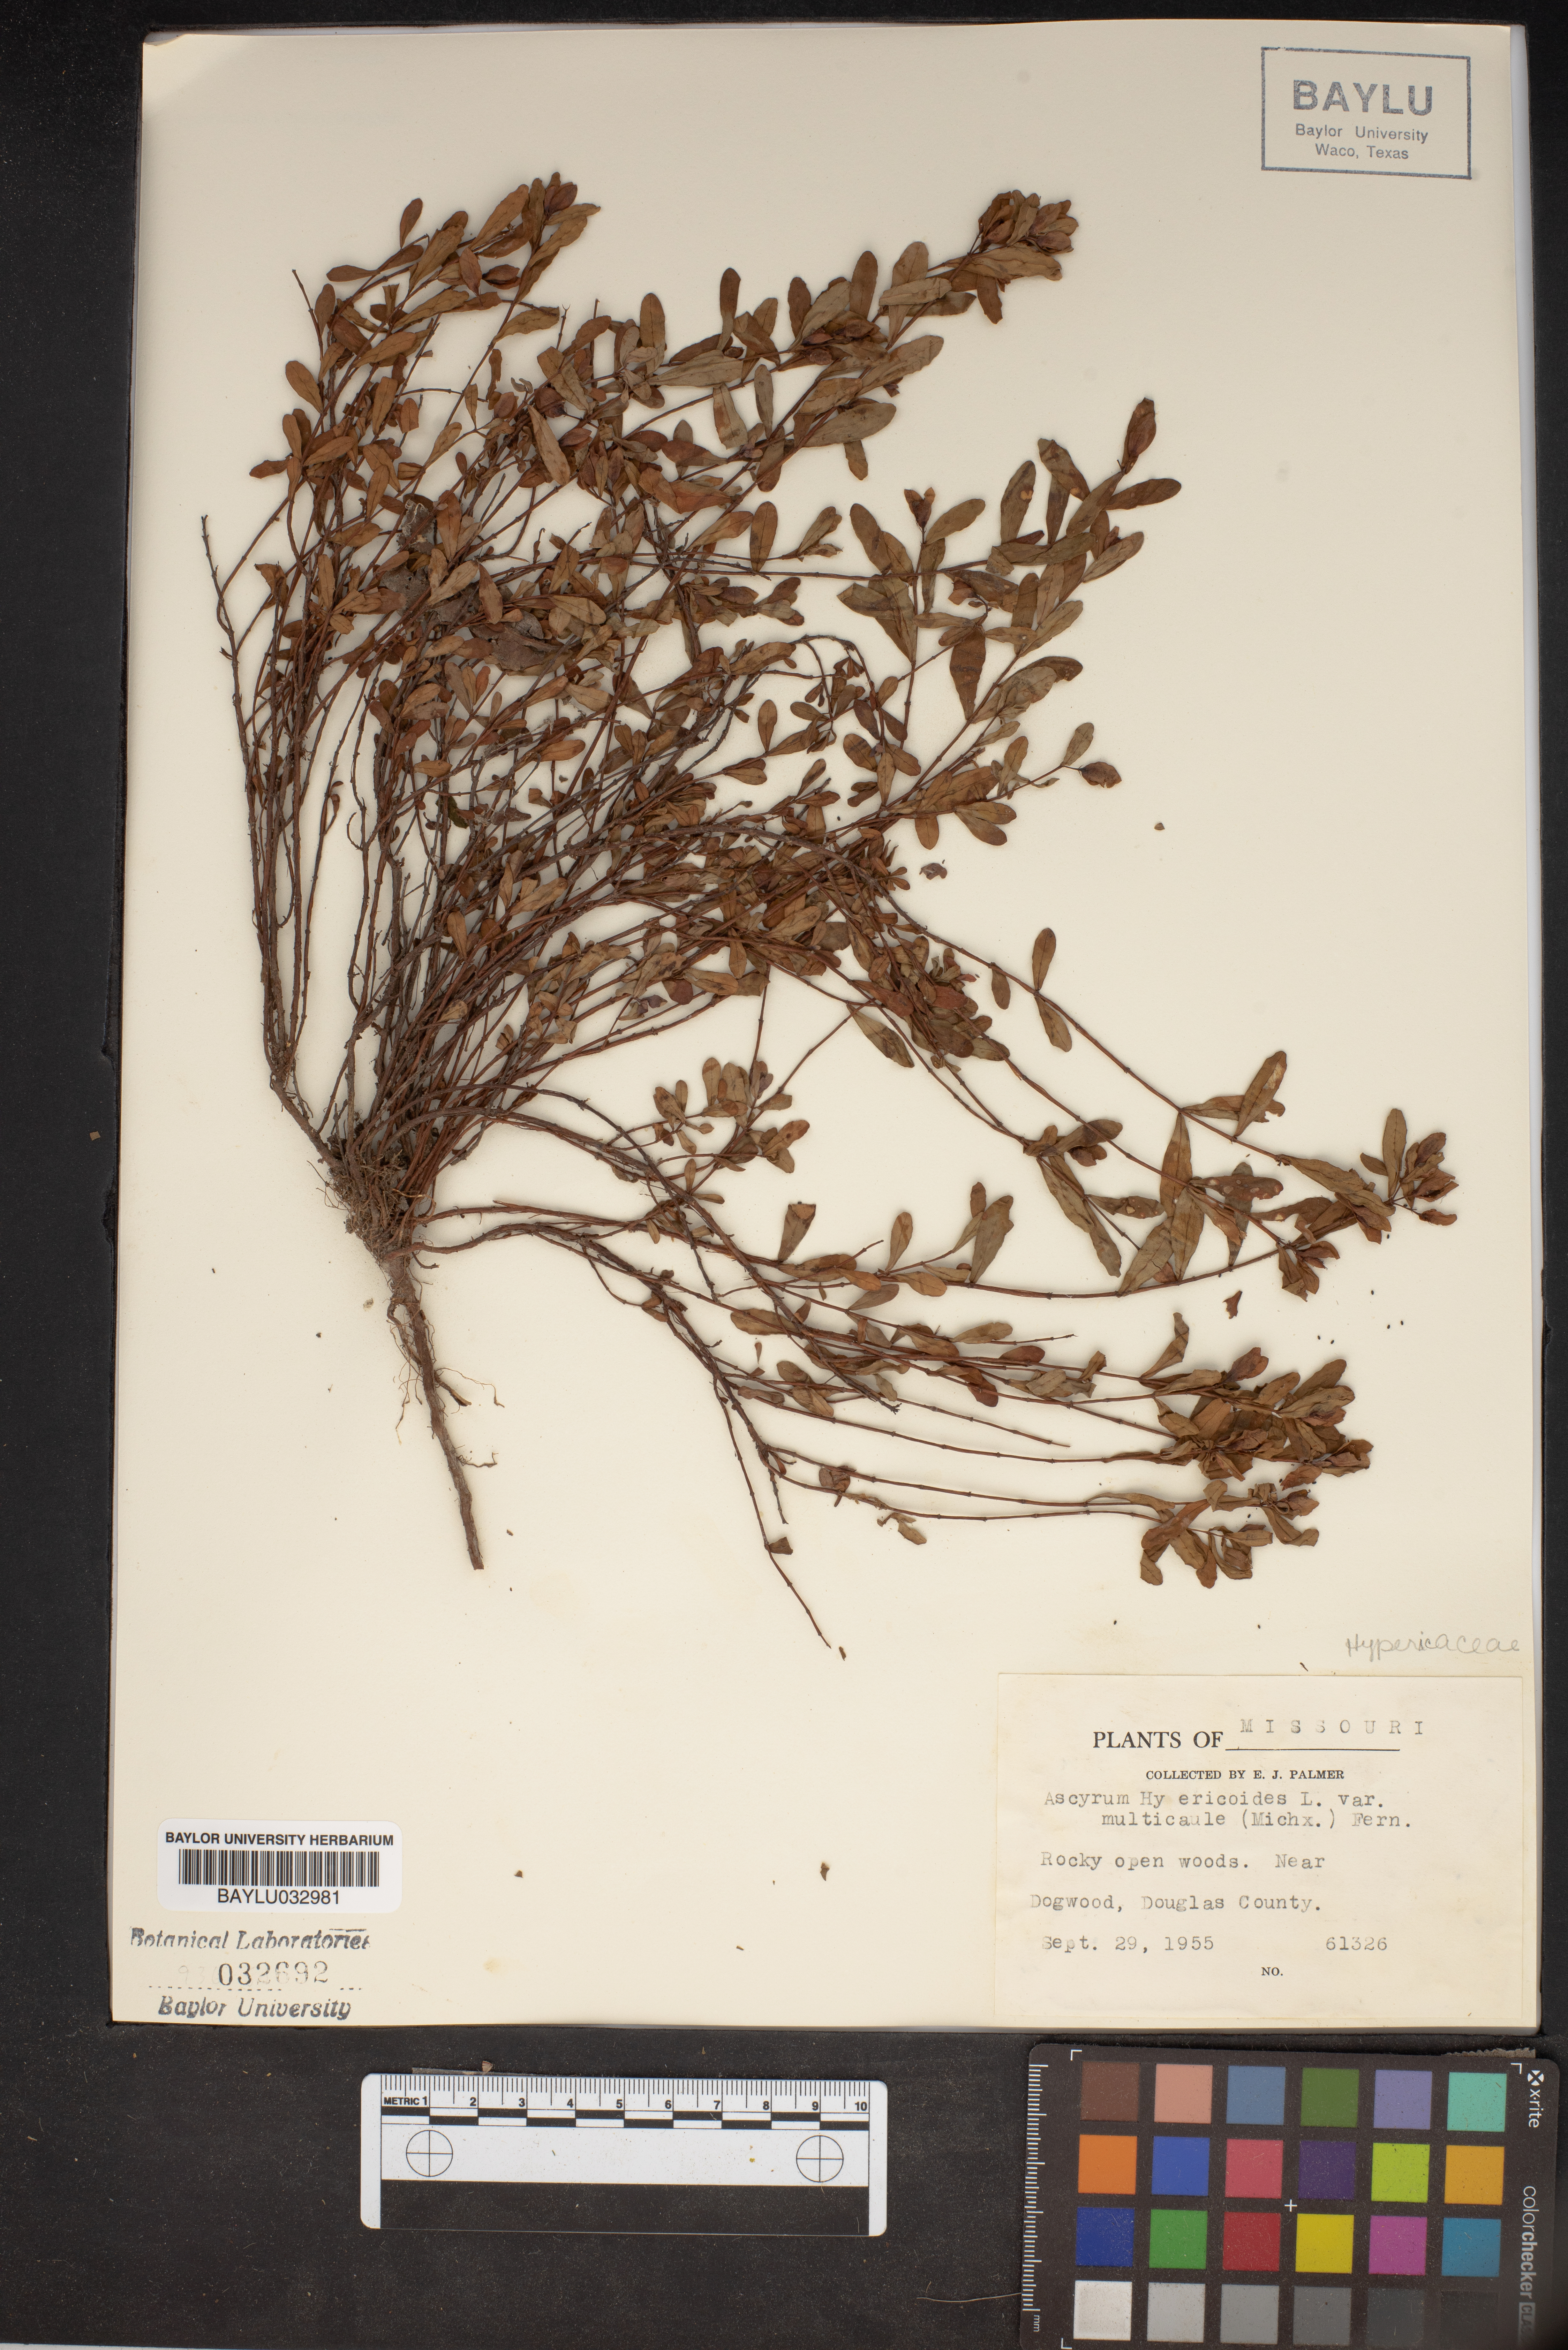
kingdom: Plantae
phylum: Tracheophyta
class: Magnoliopsida
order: Malpighiales
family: Hypericaceae
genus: Hypericum
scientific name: Hypericum hypericoides
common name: St. andrew's cross
